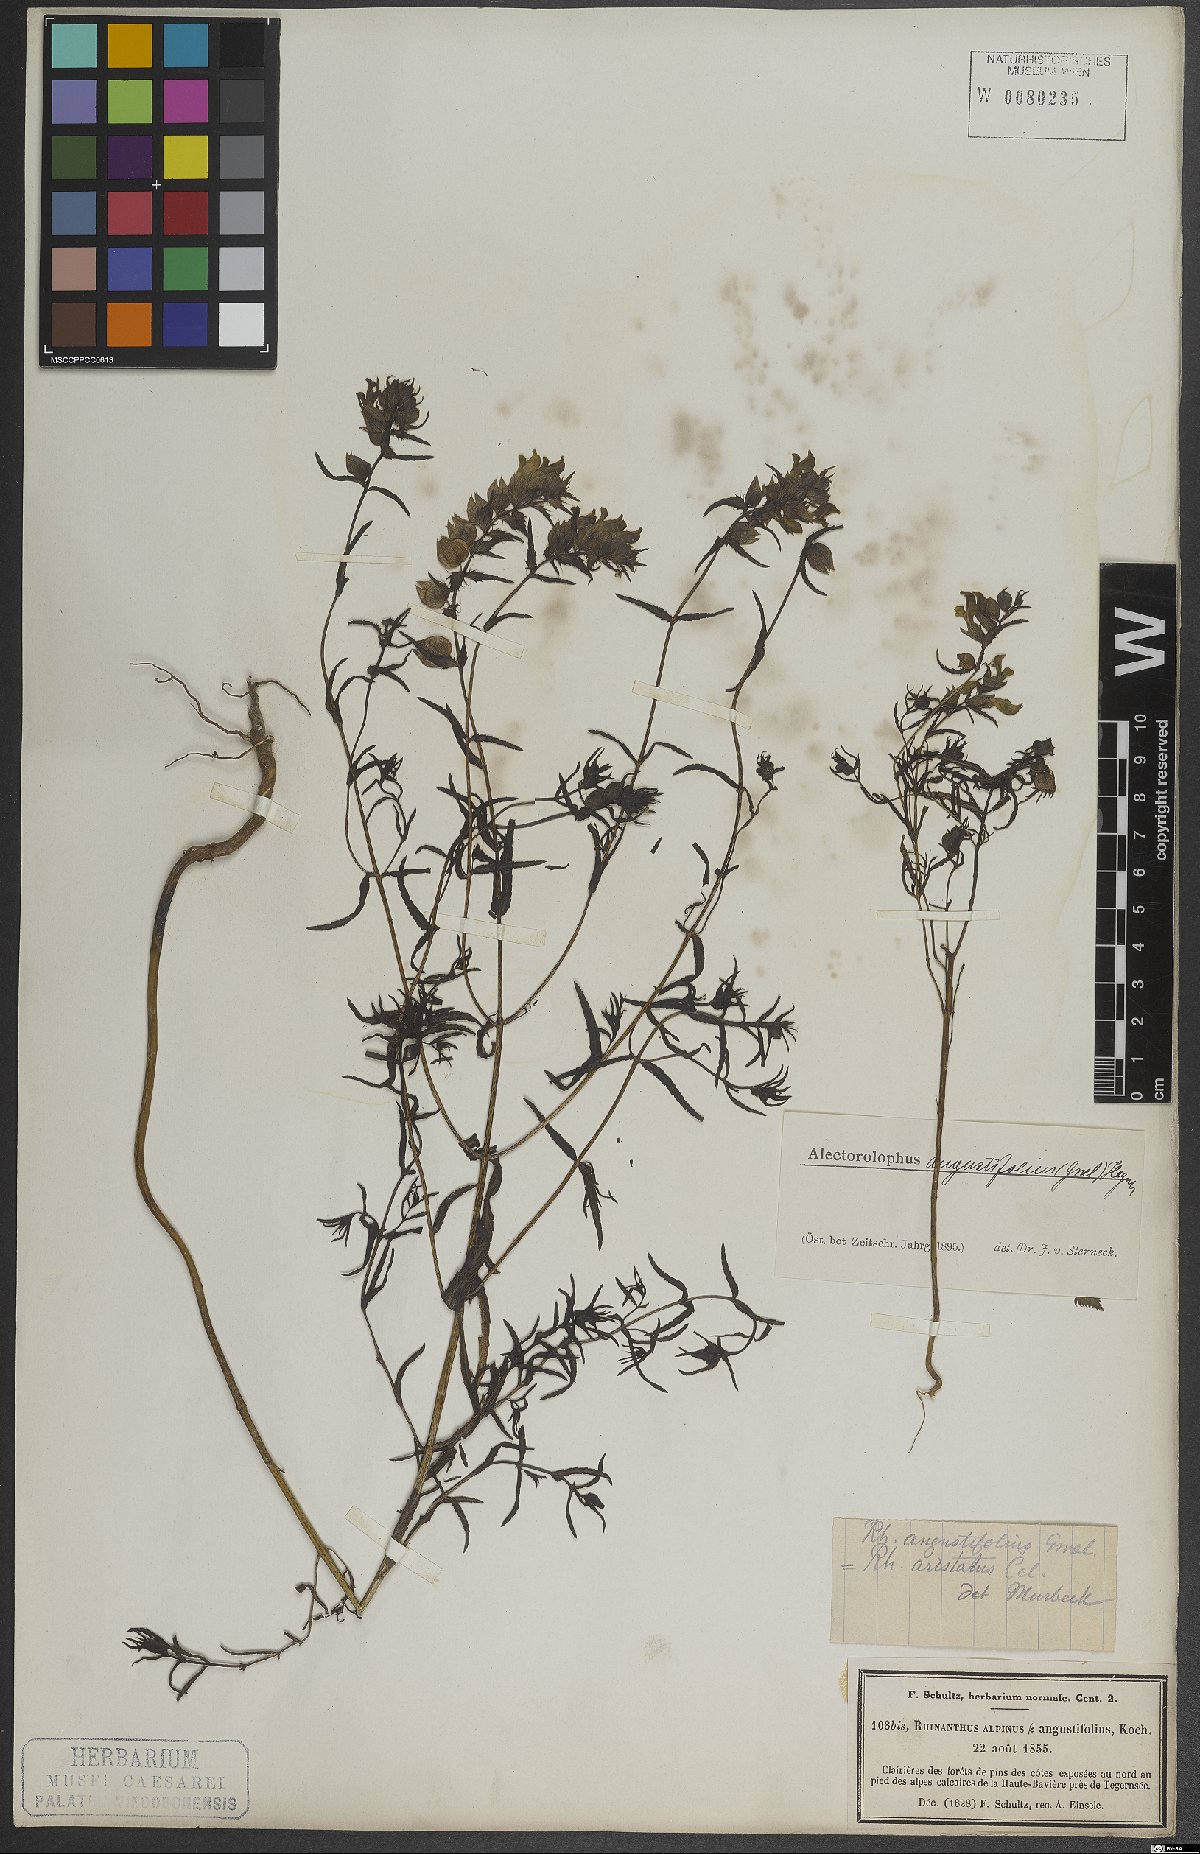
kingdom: Plantae
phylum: Tracheophyta
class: Magnoliopsida
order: Lamiales
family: Orobanchaceae
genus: Rhinanthus
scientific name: Rhinanthus glacialis
